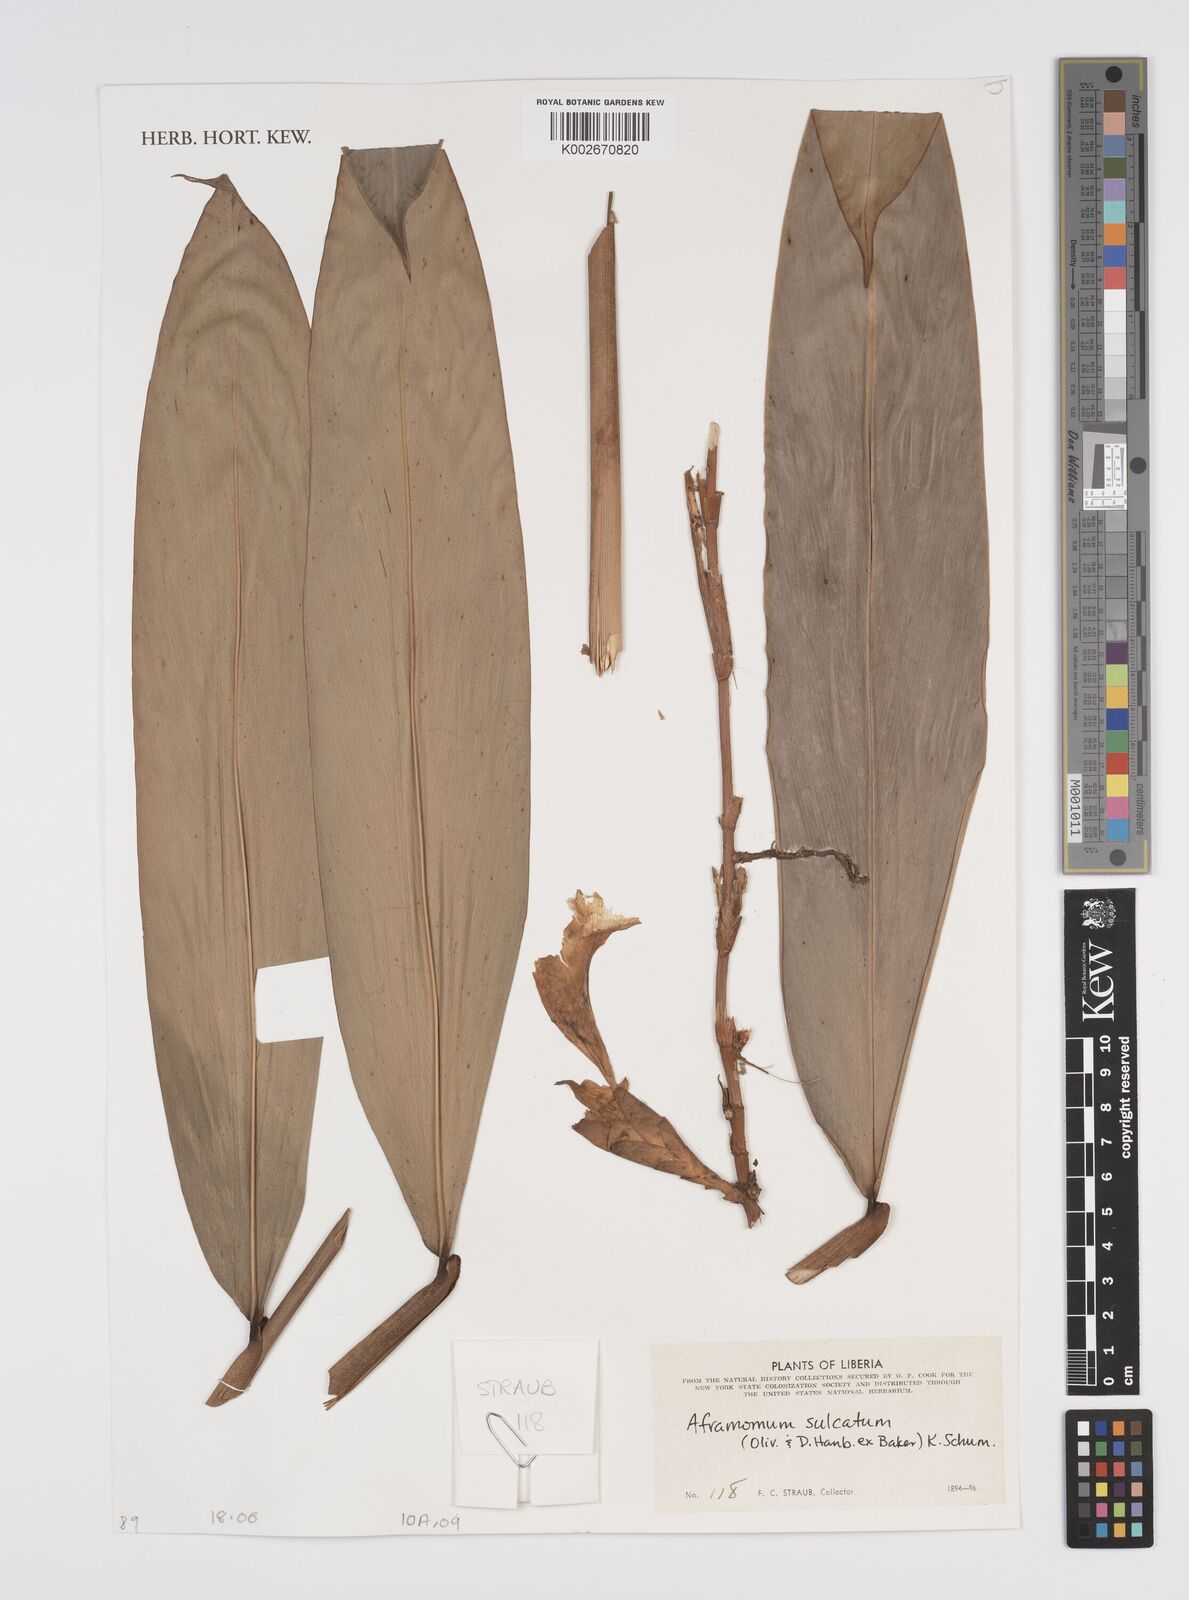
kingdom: Plantae
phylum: Tracheophyta
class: Liliopsida
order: Zingiberales
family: Zingiberaceae
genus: Aframomum
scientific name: Aframomum sulcatum
